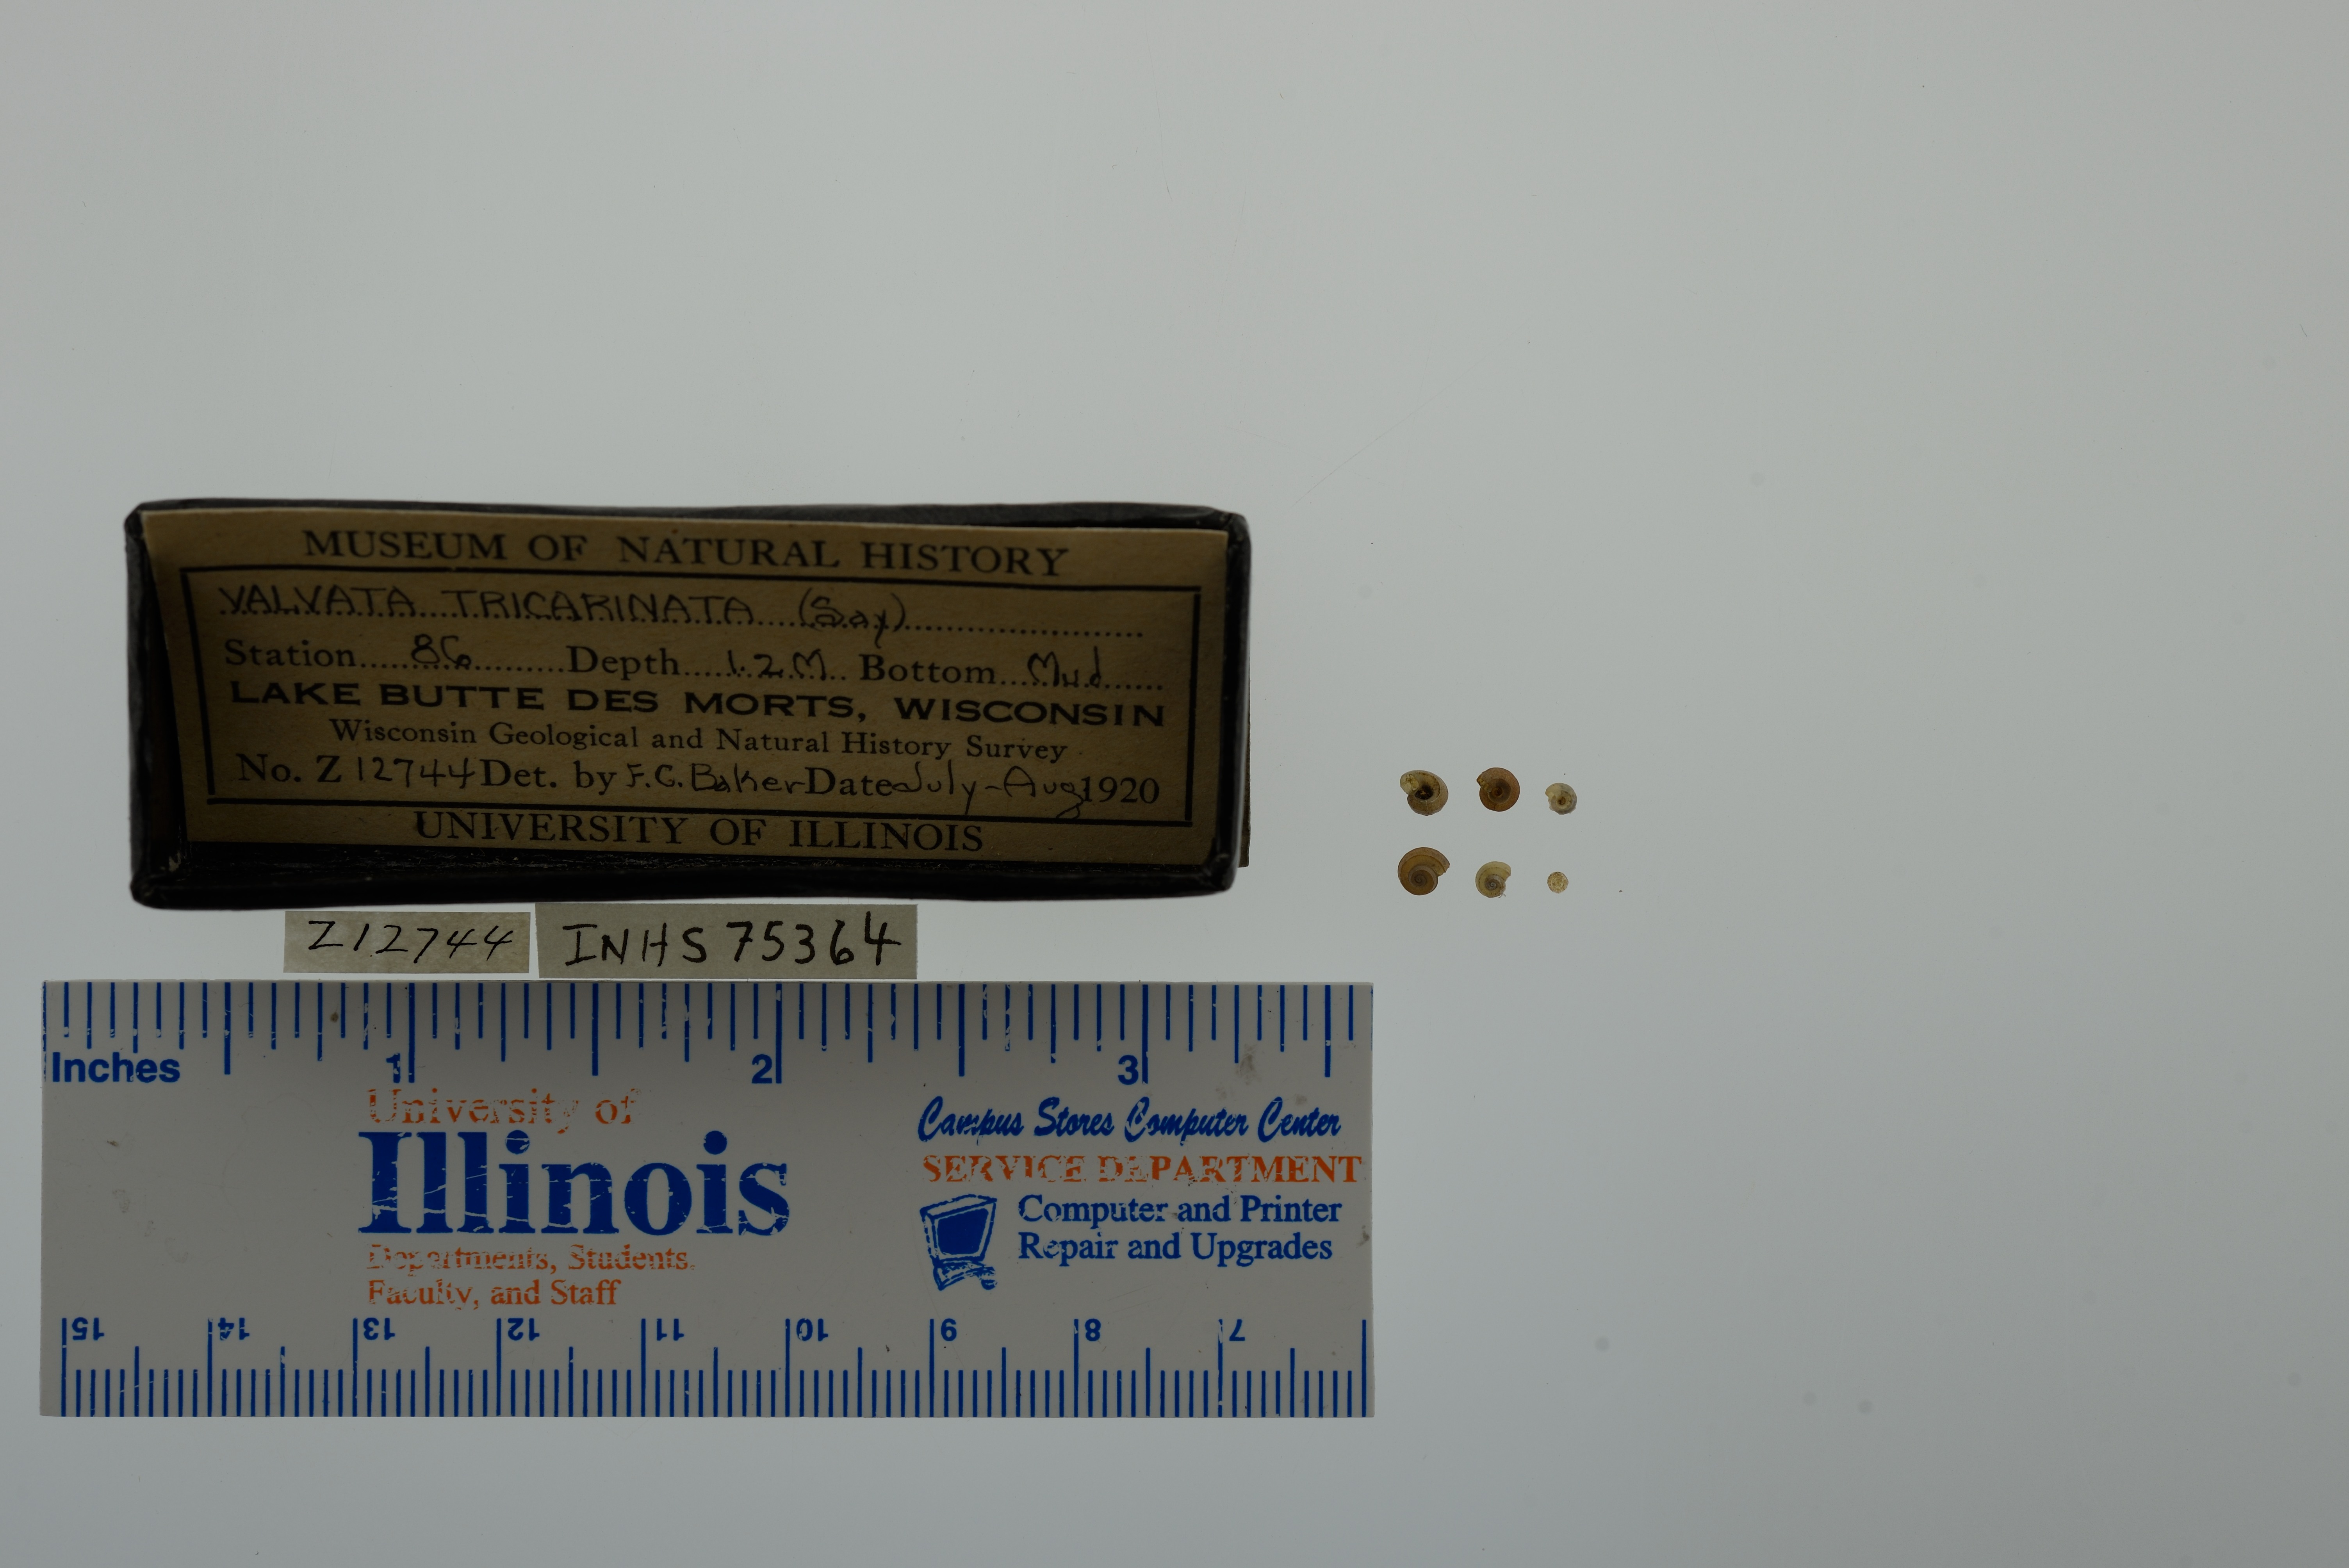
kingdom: Animalia
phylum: Mollusca
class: Gastropoda
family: Valvatidae
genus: Valvata
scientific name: Valvata tricarinata
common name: Three-ridge valvata
